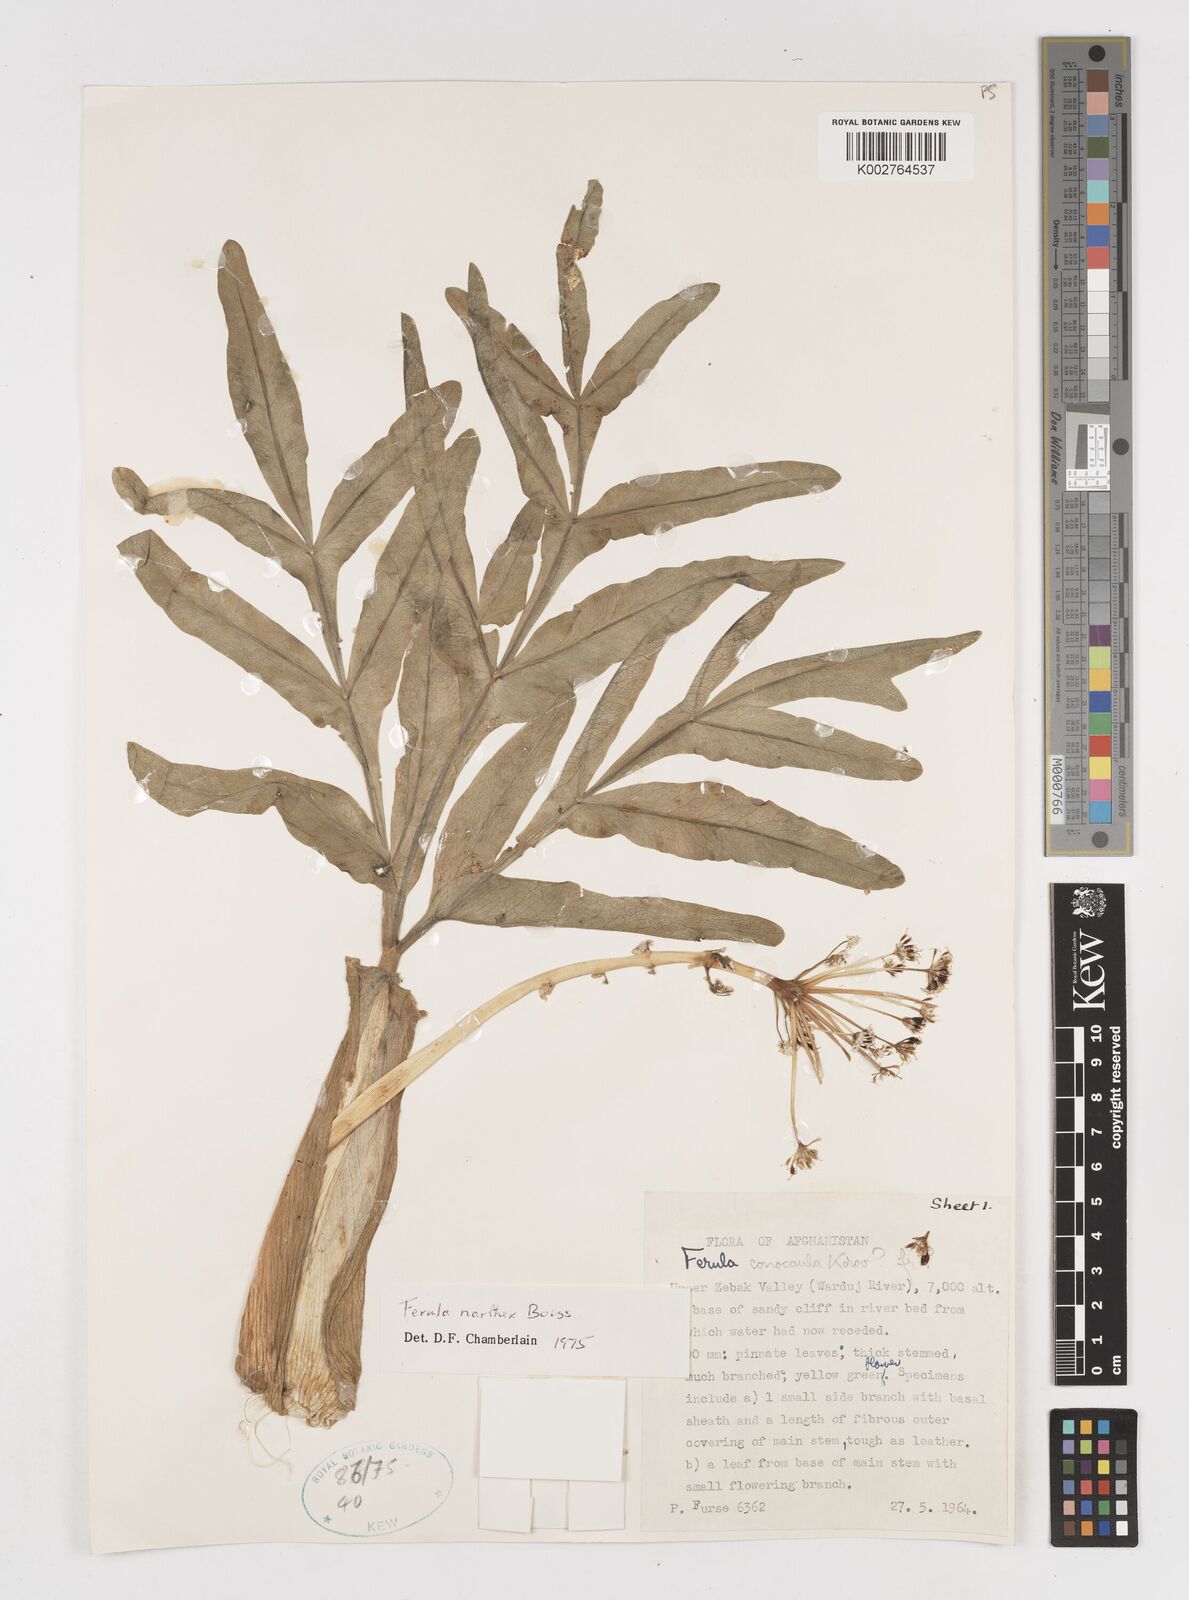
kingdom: Plantae
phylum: Tracheophyta
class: Magnoliopsida
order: Apiales
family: Apiaceae
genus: Ferula
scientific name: Ferula narthex
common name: Hing asafetida
